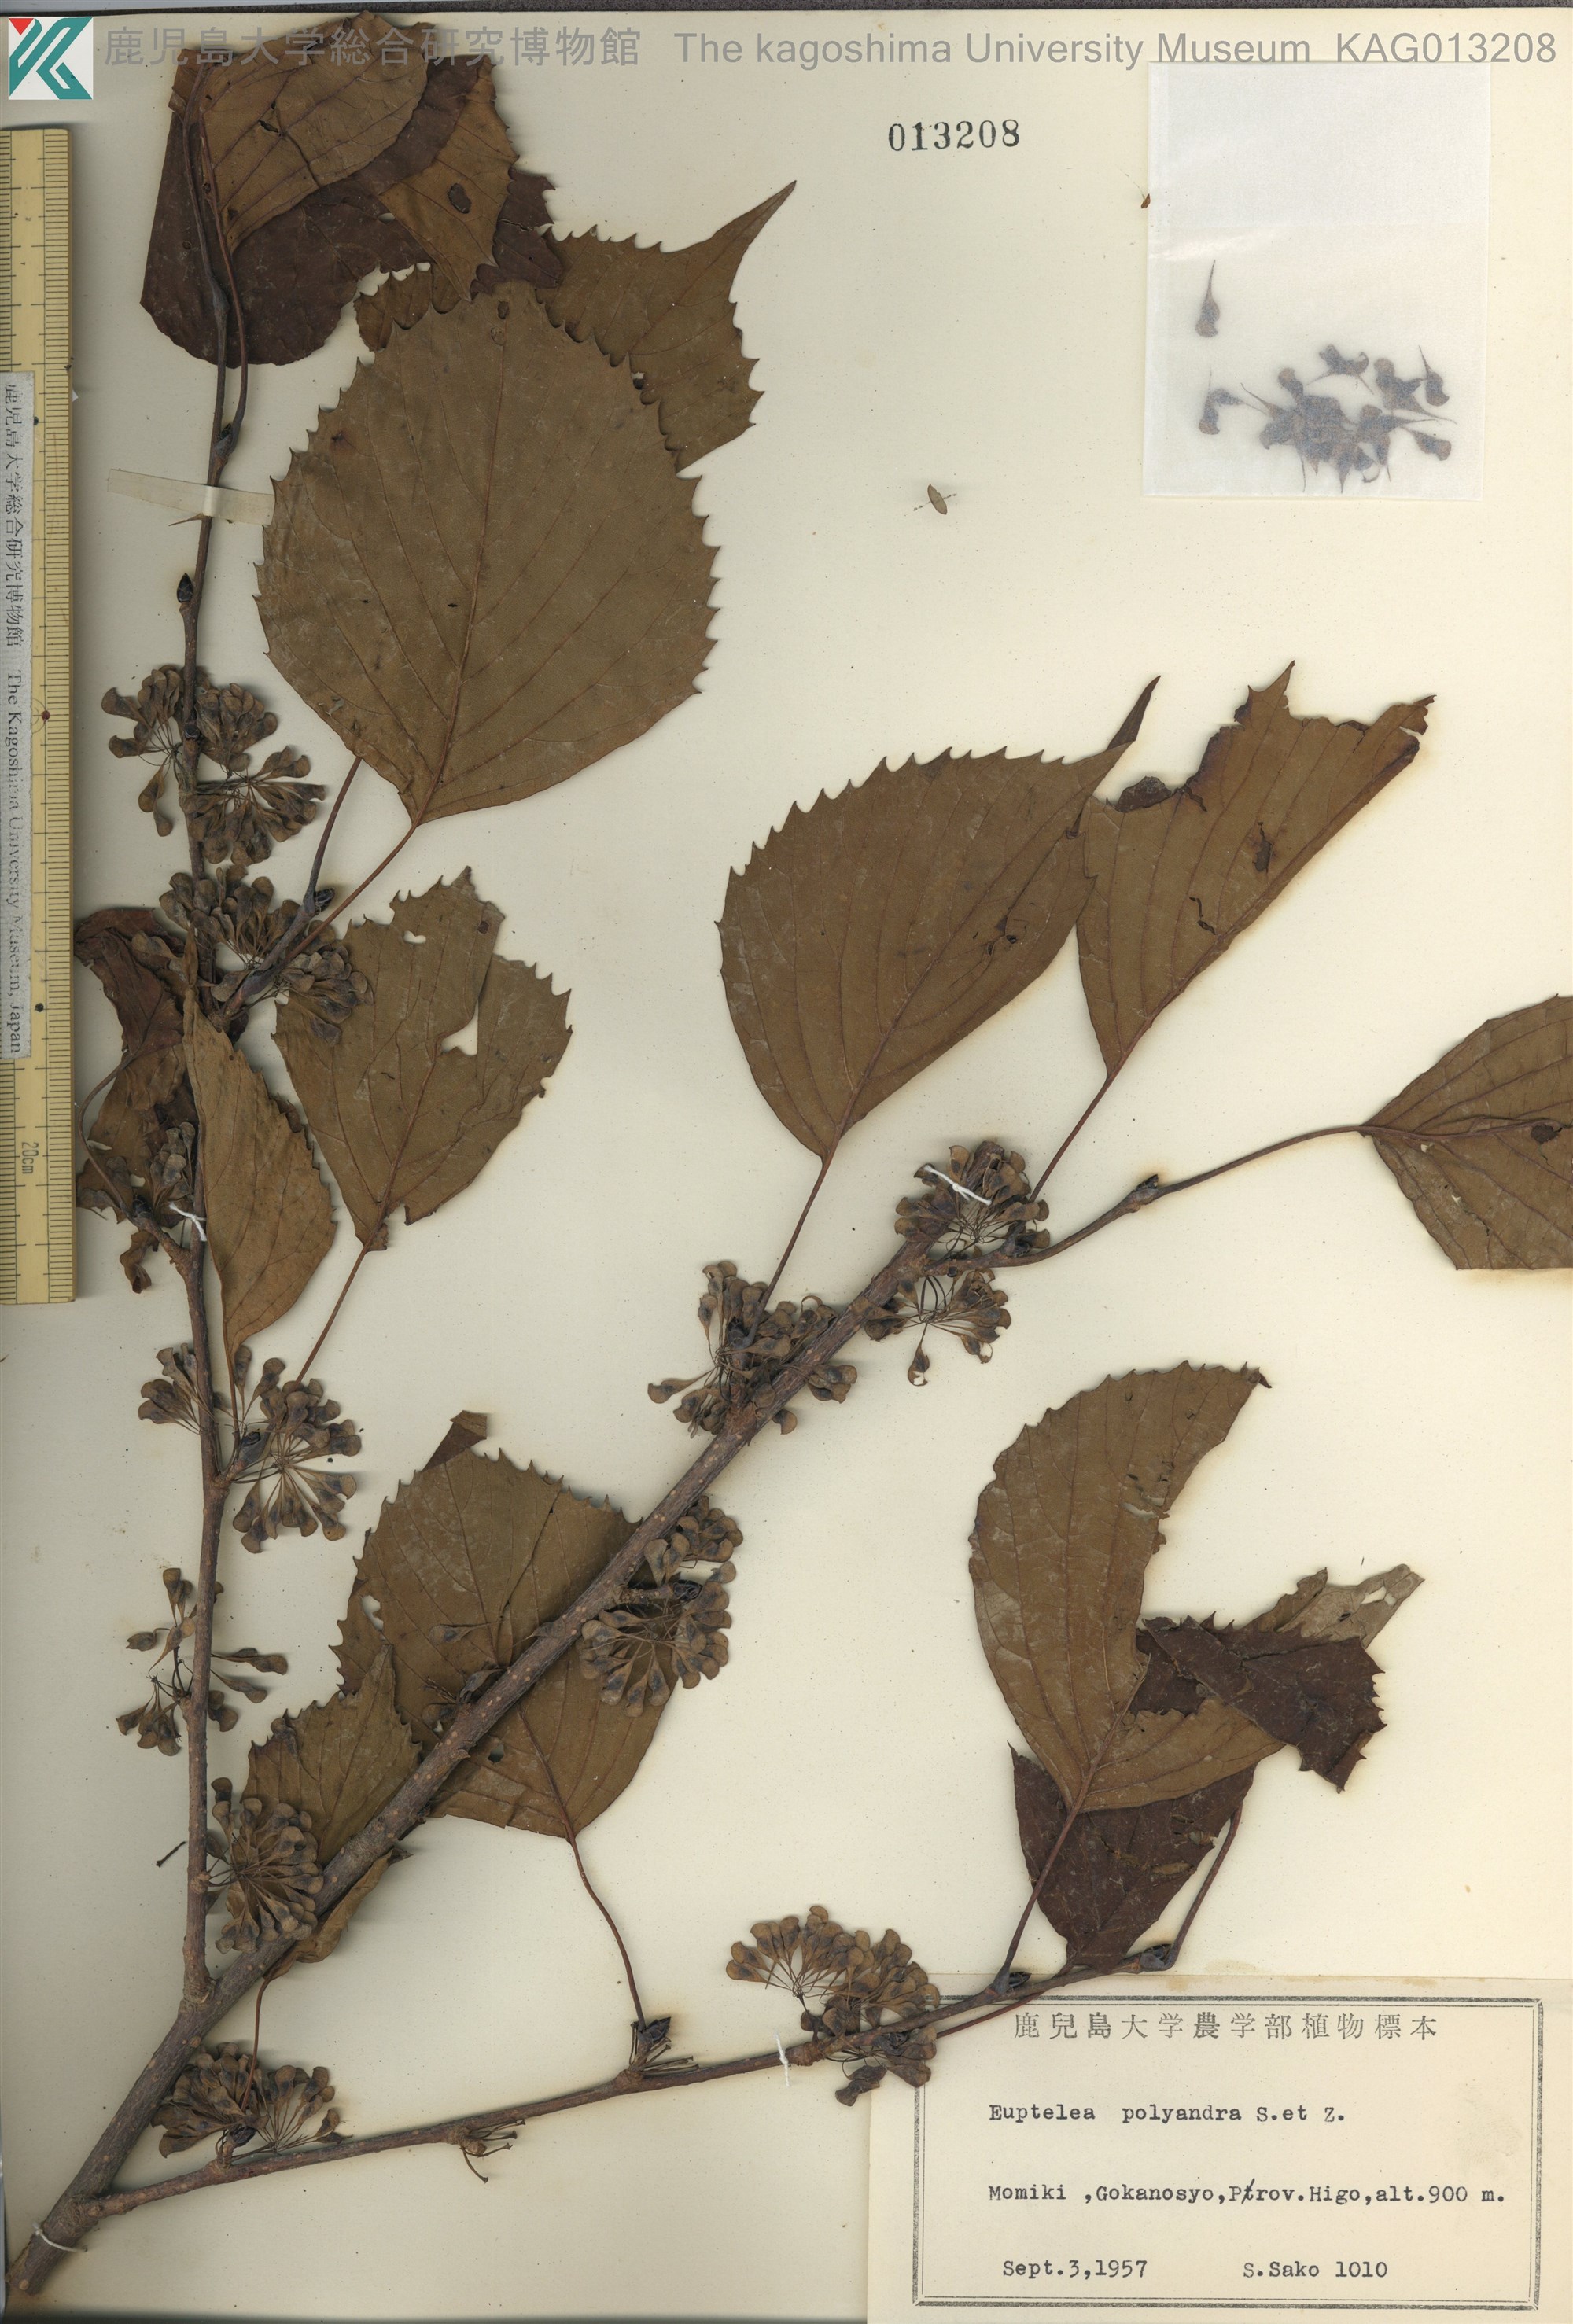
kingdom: Plantae
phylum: Tracheophyta
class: Magnoliopsida
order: Ranunculales
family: Eupteleaceae
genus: Euptelea
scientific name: Euptelea polyandra
